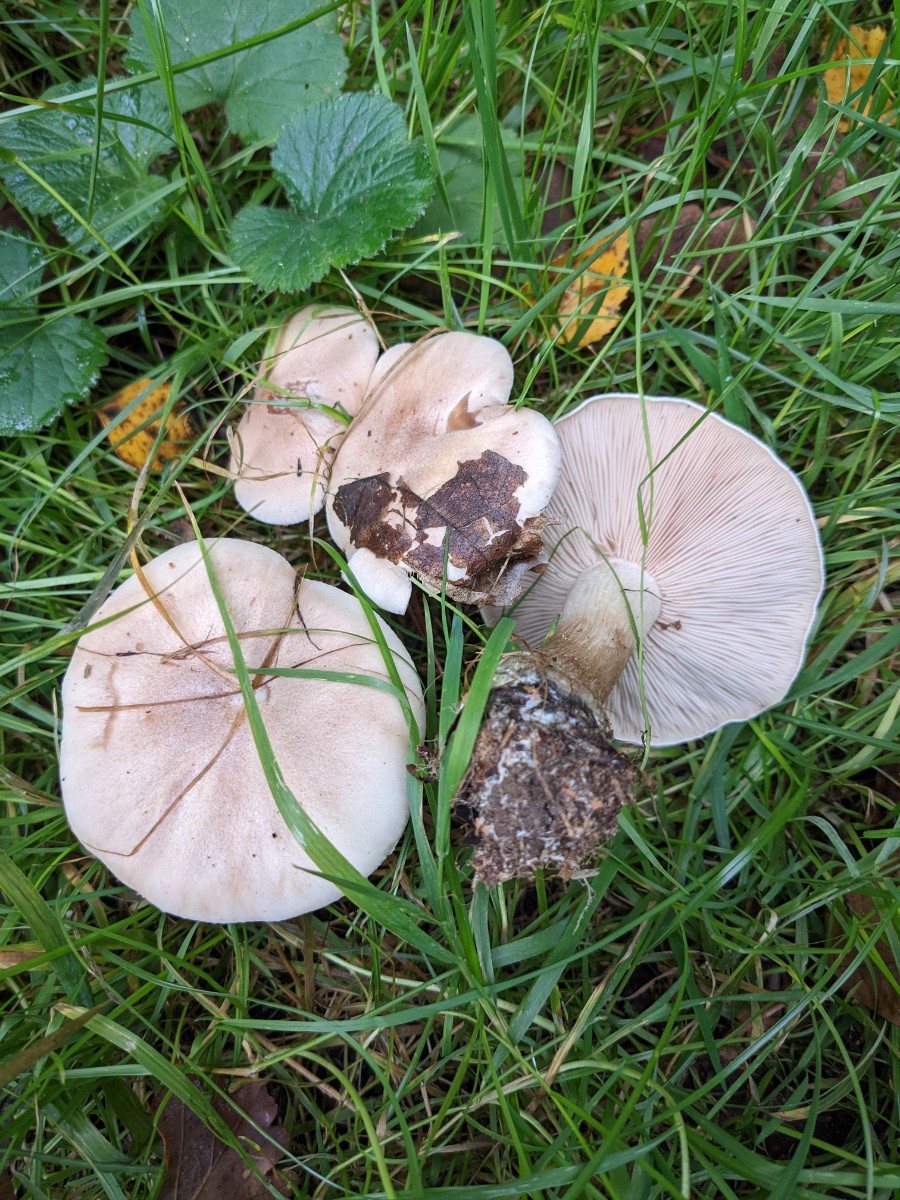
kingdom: Fungi
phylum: Basidiomycota
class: Agaricomycetes
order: Agaricales
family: Tricholomataceae
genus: Lepista
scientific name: Lepista irina
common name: violduftende hekseringshat
